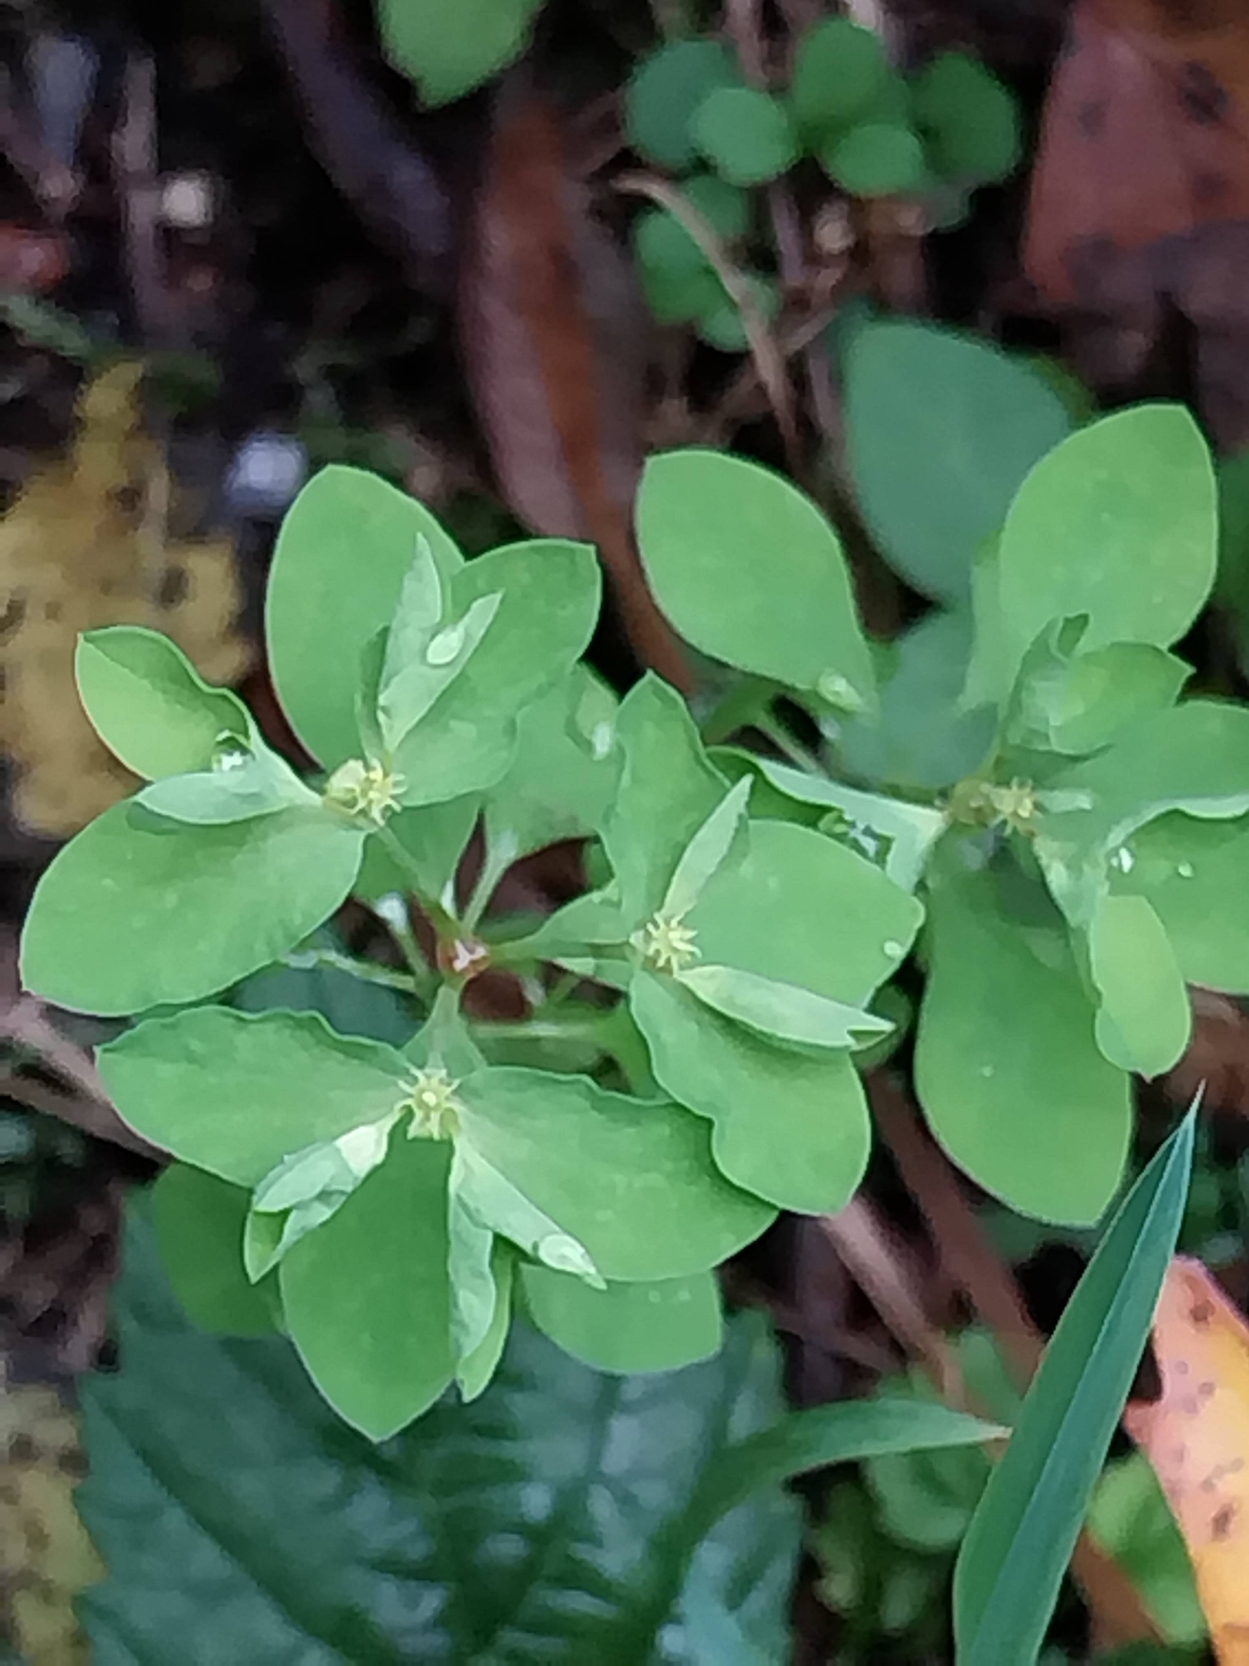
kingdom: Plantae
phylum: Tracheophyta
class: Magnoliopsida
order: Malpighiales
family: Euphorbiaceae
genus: Euphorbia
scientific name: Euphorbia peplus
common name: Gaffel-vortemælk
